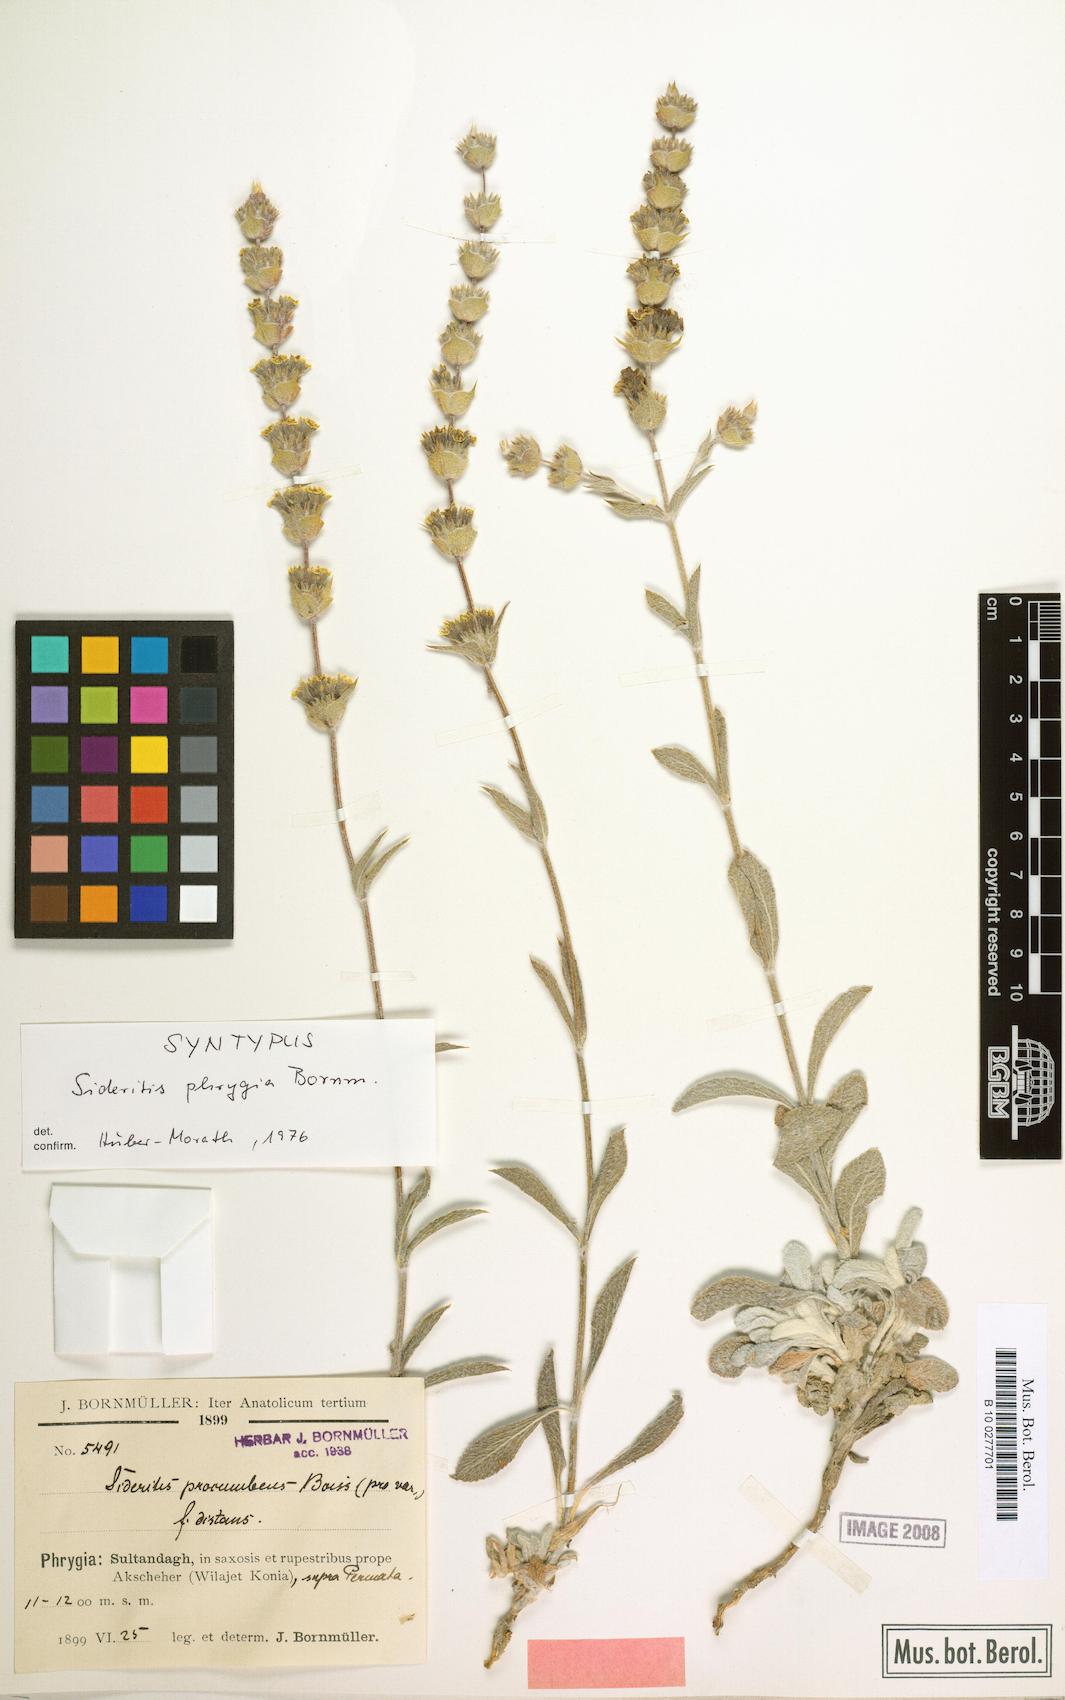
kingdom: Plantae
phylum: Tracheophyta
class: Magnoliopsida
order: Lamiales
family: Lamiaceae
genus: Sideritis
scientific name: Sideritis phrygia
